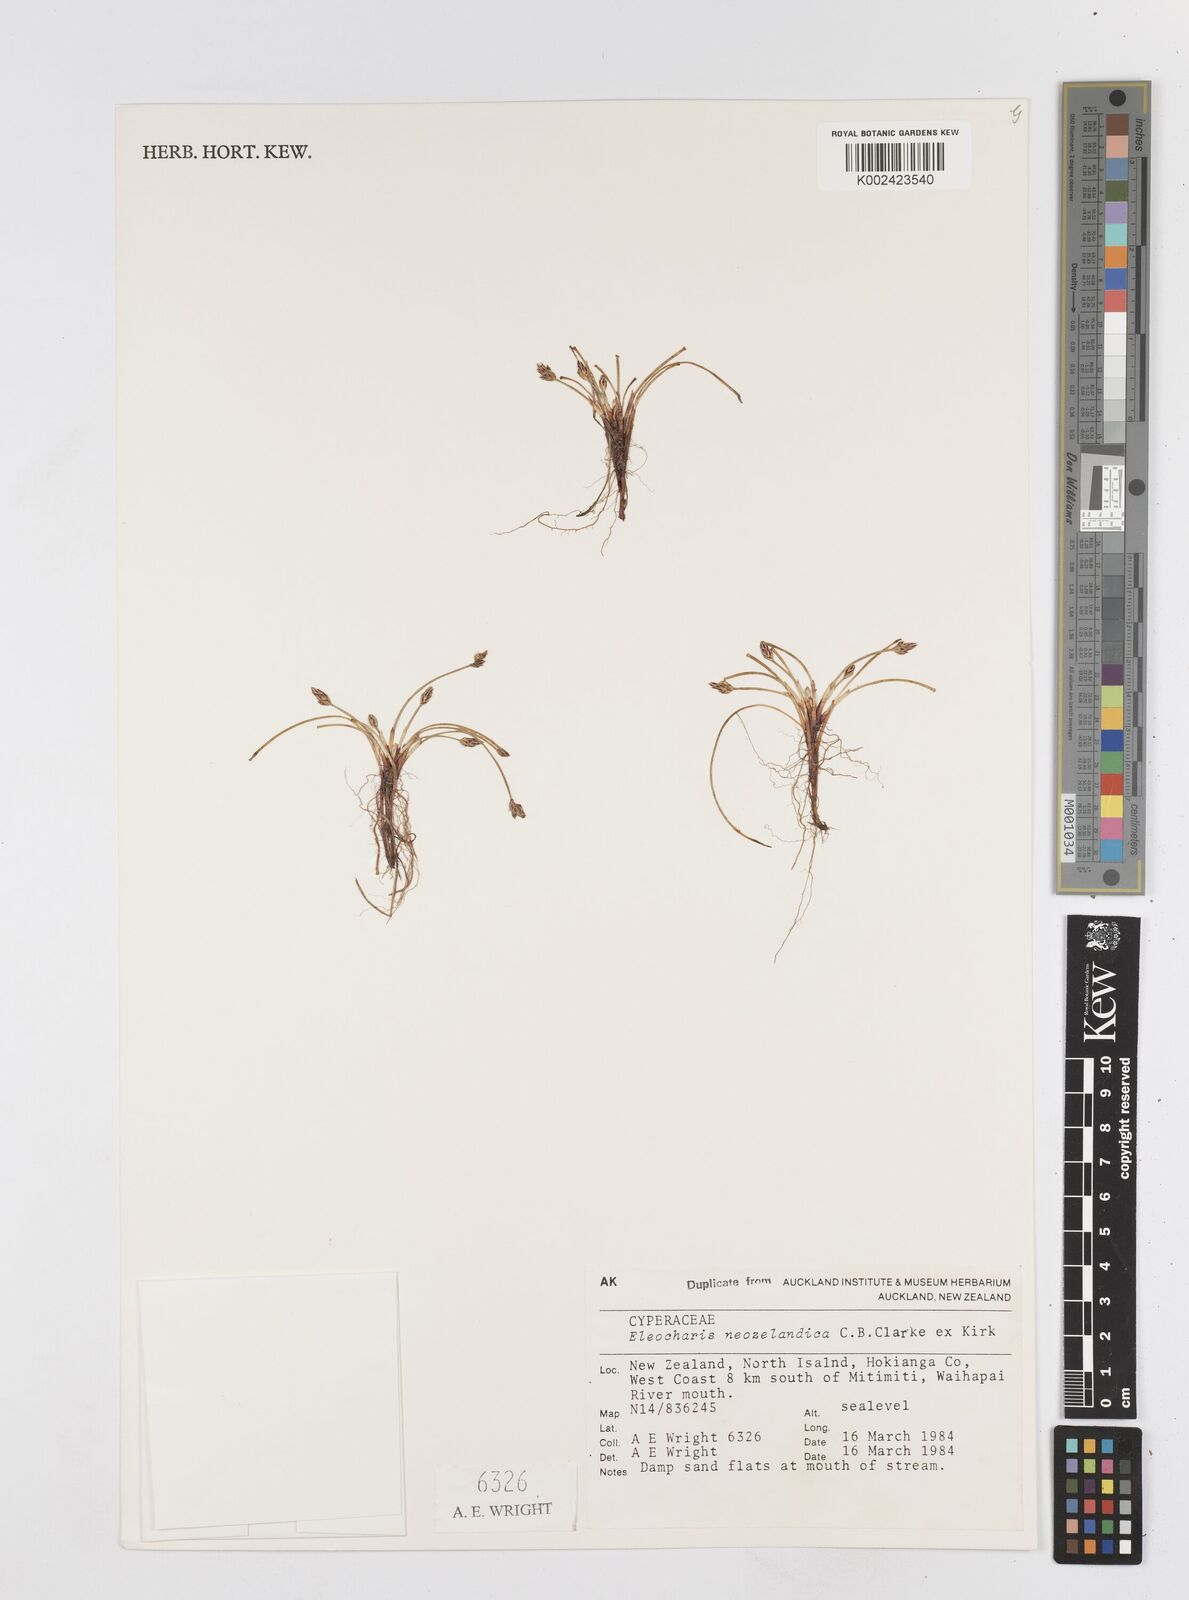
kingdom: Plantae
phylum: Tracheophyta
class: Liliopsida
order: Poales
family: Cyperaceae
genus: Eleocharis
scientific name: Eleocharis neozelandica
